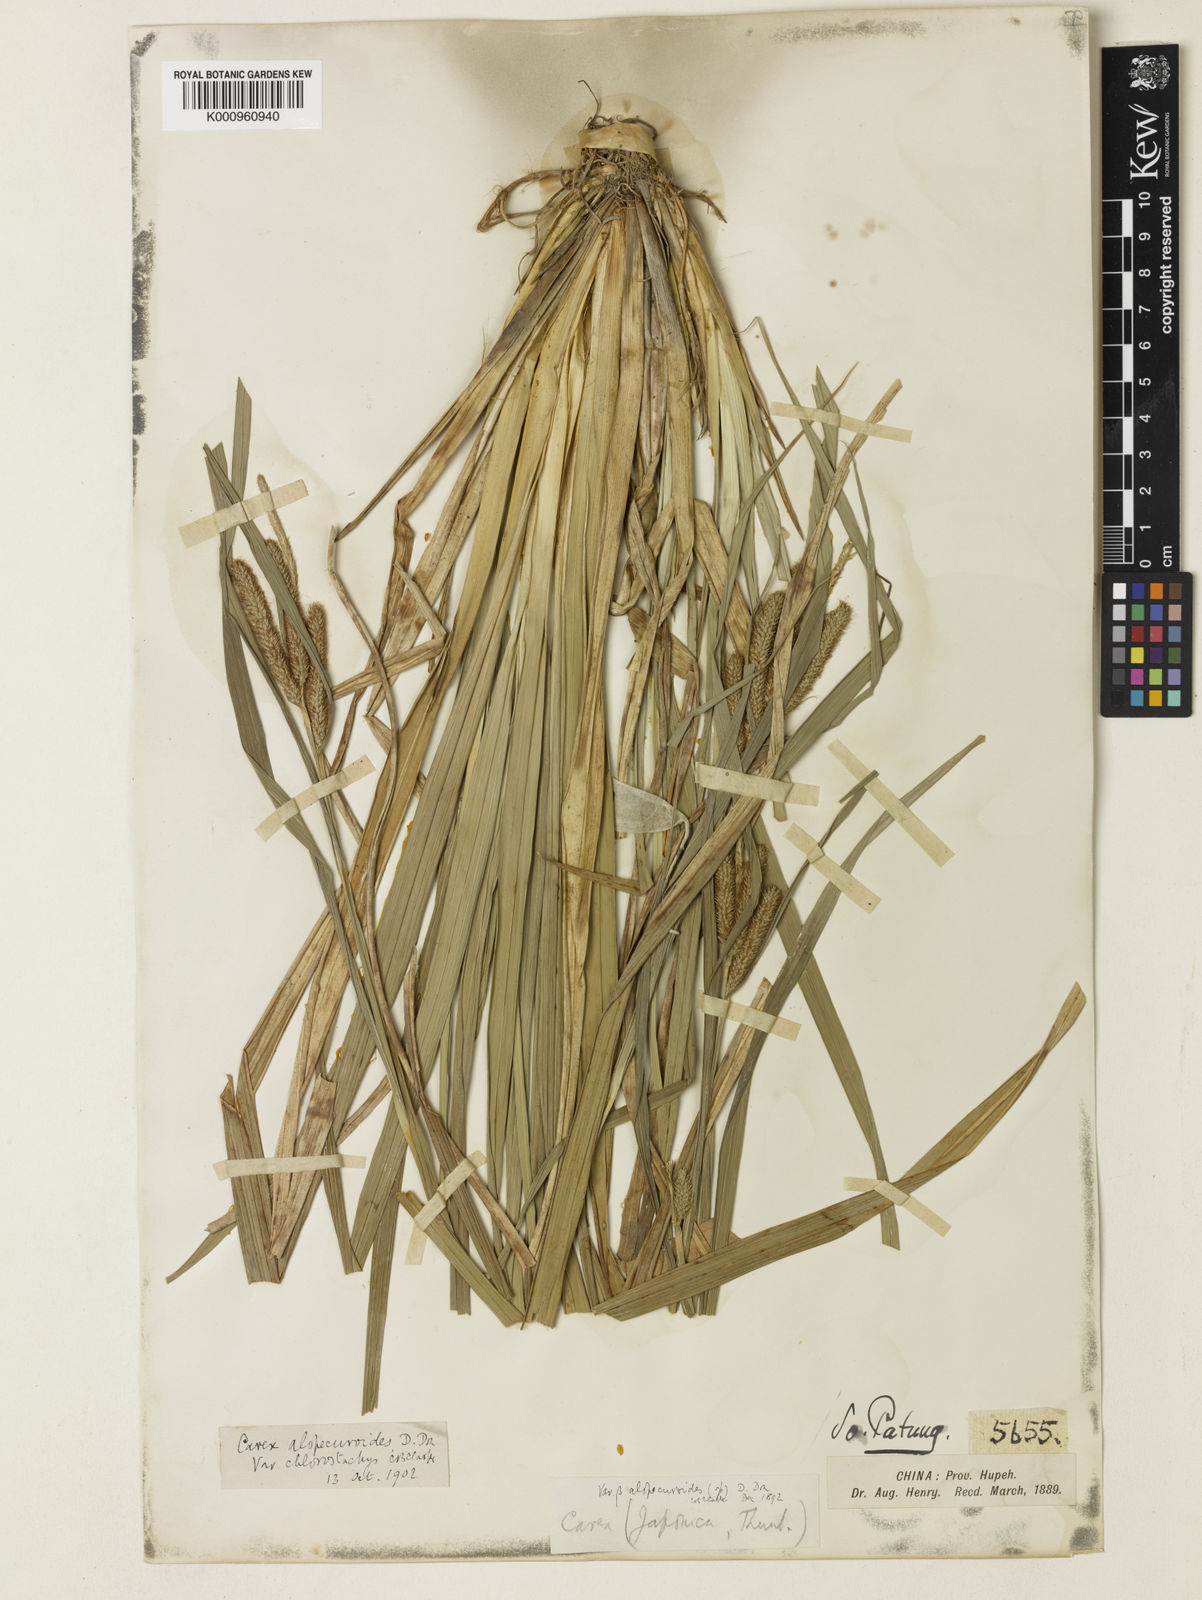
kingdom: Plantae
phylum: Tracheophyta
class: Liliopsida
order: Poales
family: Cyperaceae
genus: Carex
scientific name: Carex japonica
